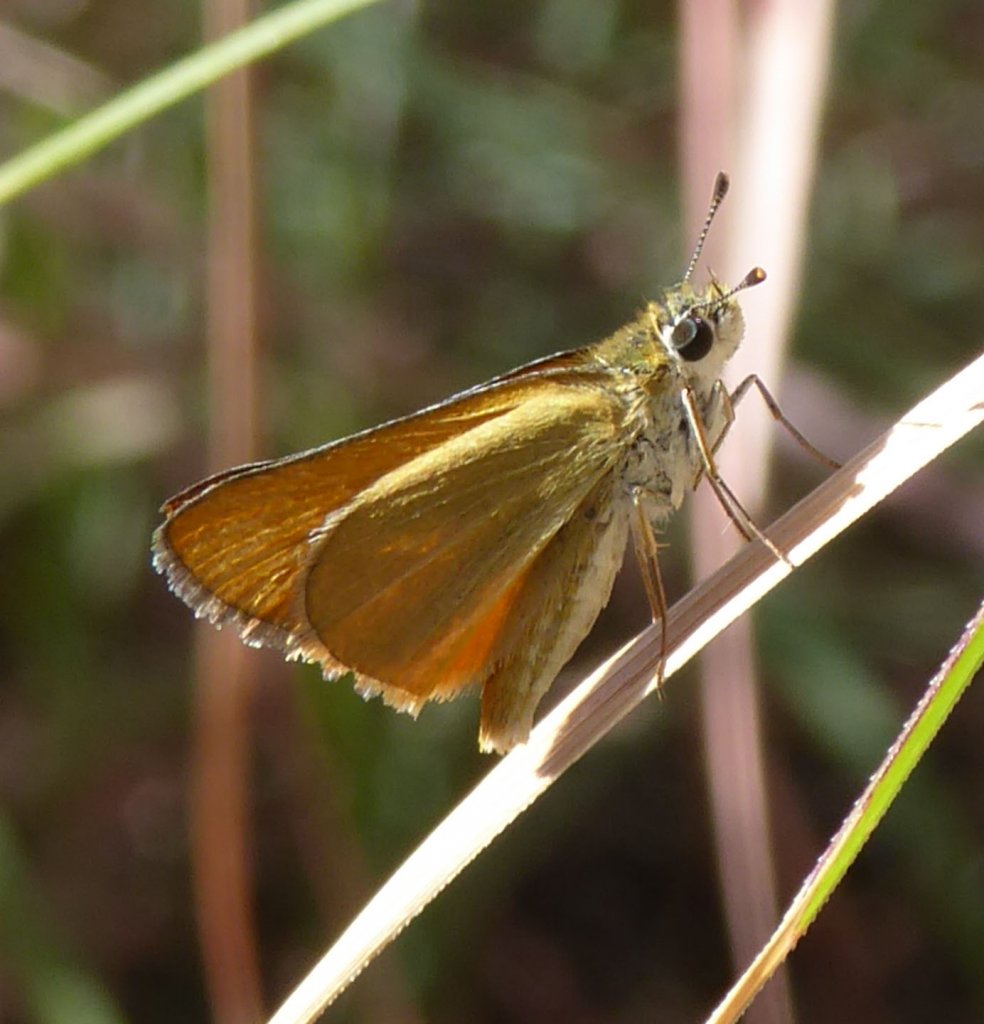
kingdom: Animalia
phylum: Arthropoda
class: Insecta
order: Lepidoptera
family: Hesperiidae
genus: Copaeodes
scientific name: Copaeodes aurantiaca
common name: Orange Skipperling
